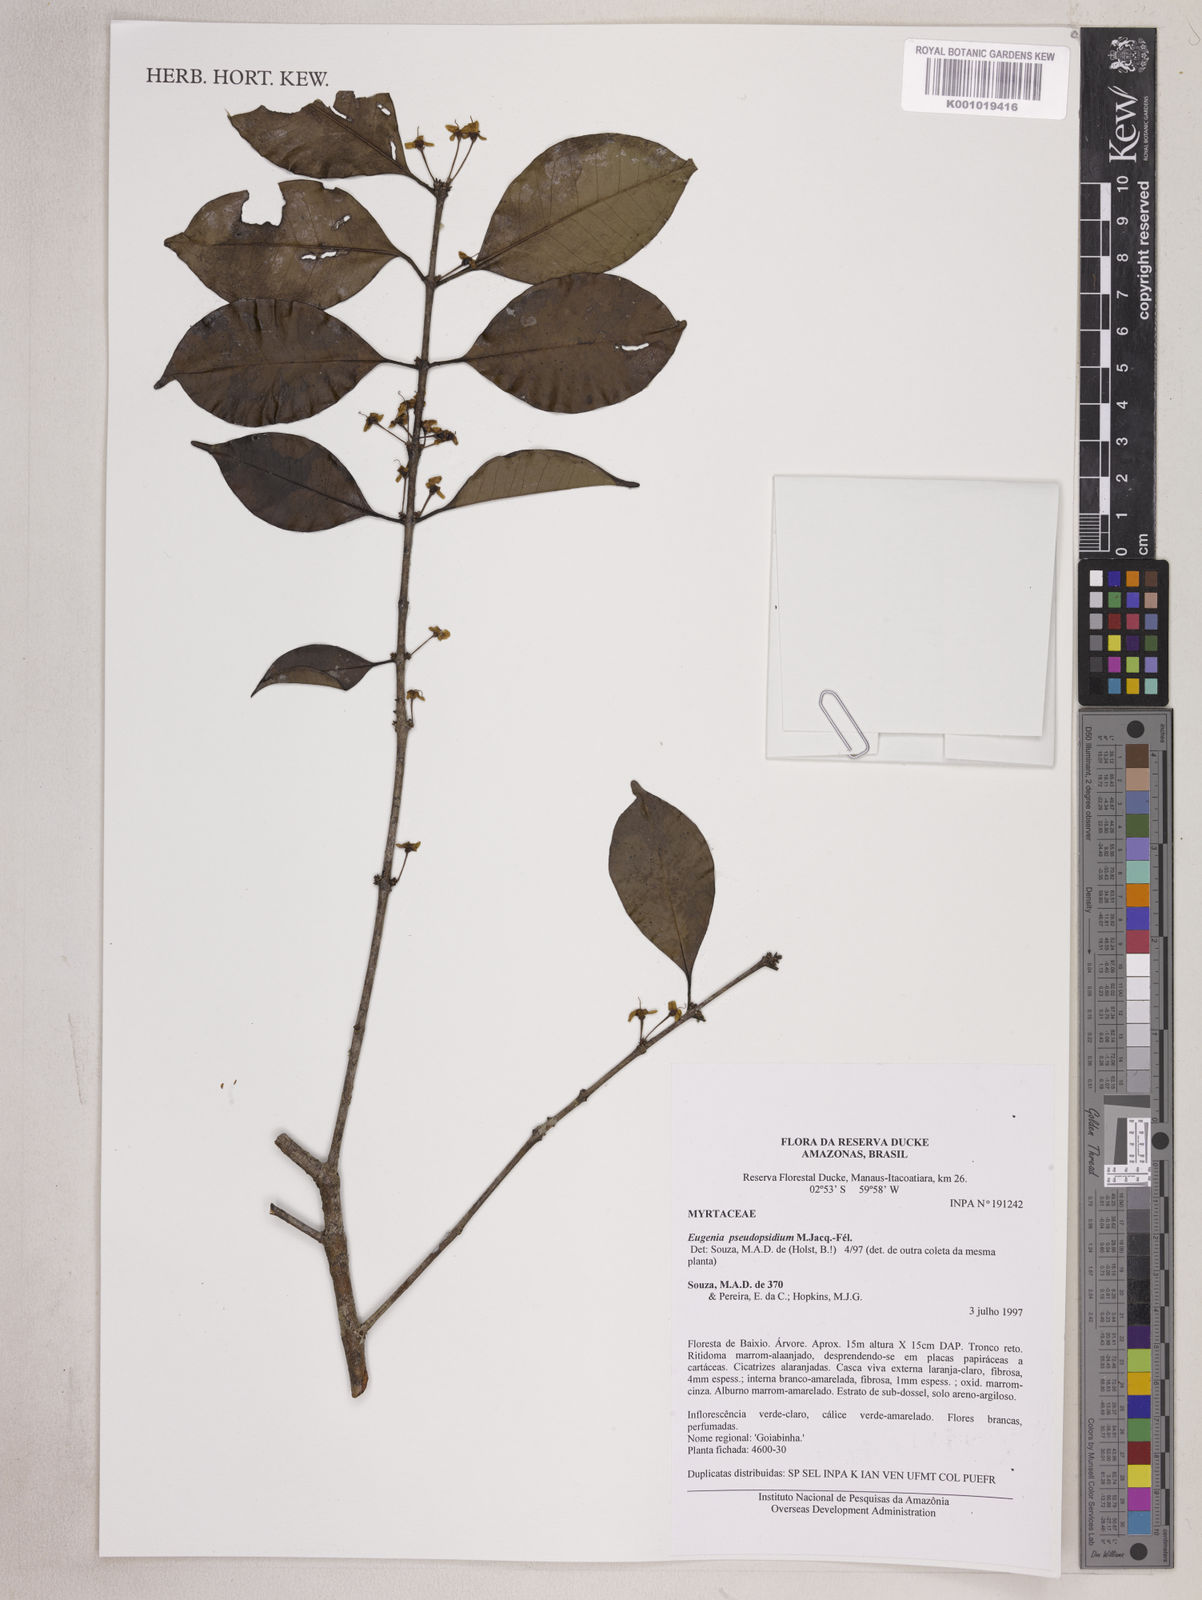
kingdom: Plantae
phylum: Tracheophyta
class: Magnoliopsida
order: Myrtales
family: Myrtaceae
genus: Eugenia
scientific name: Eugenia pseudopsidium
